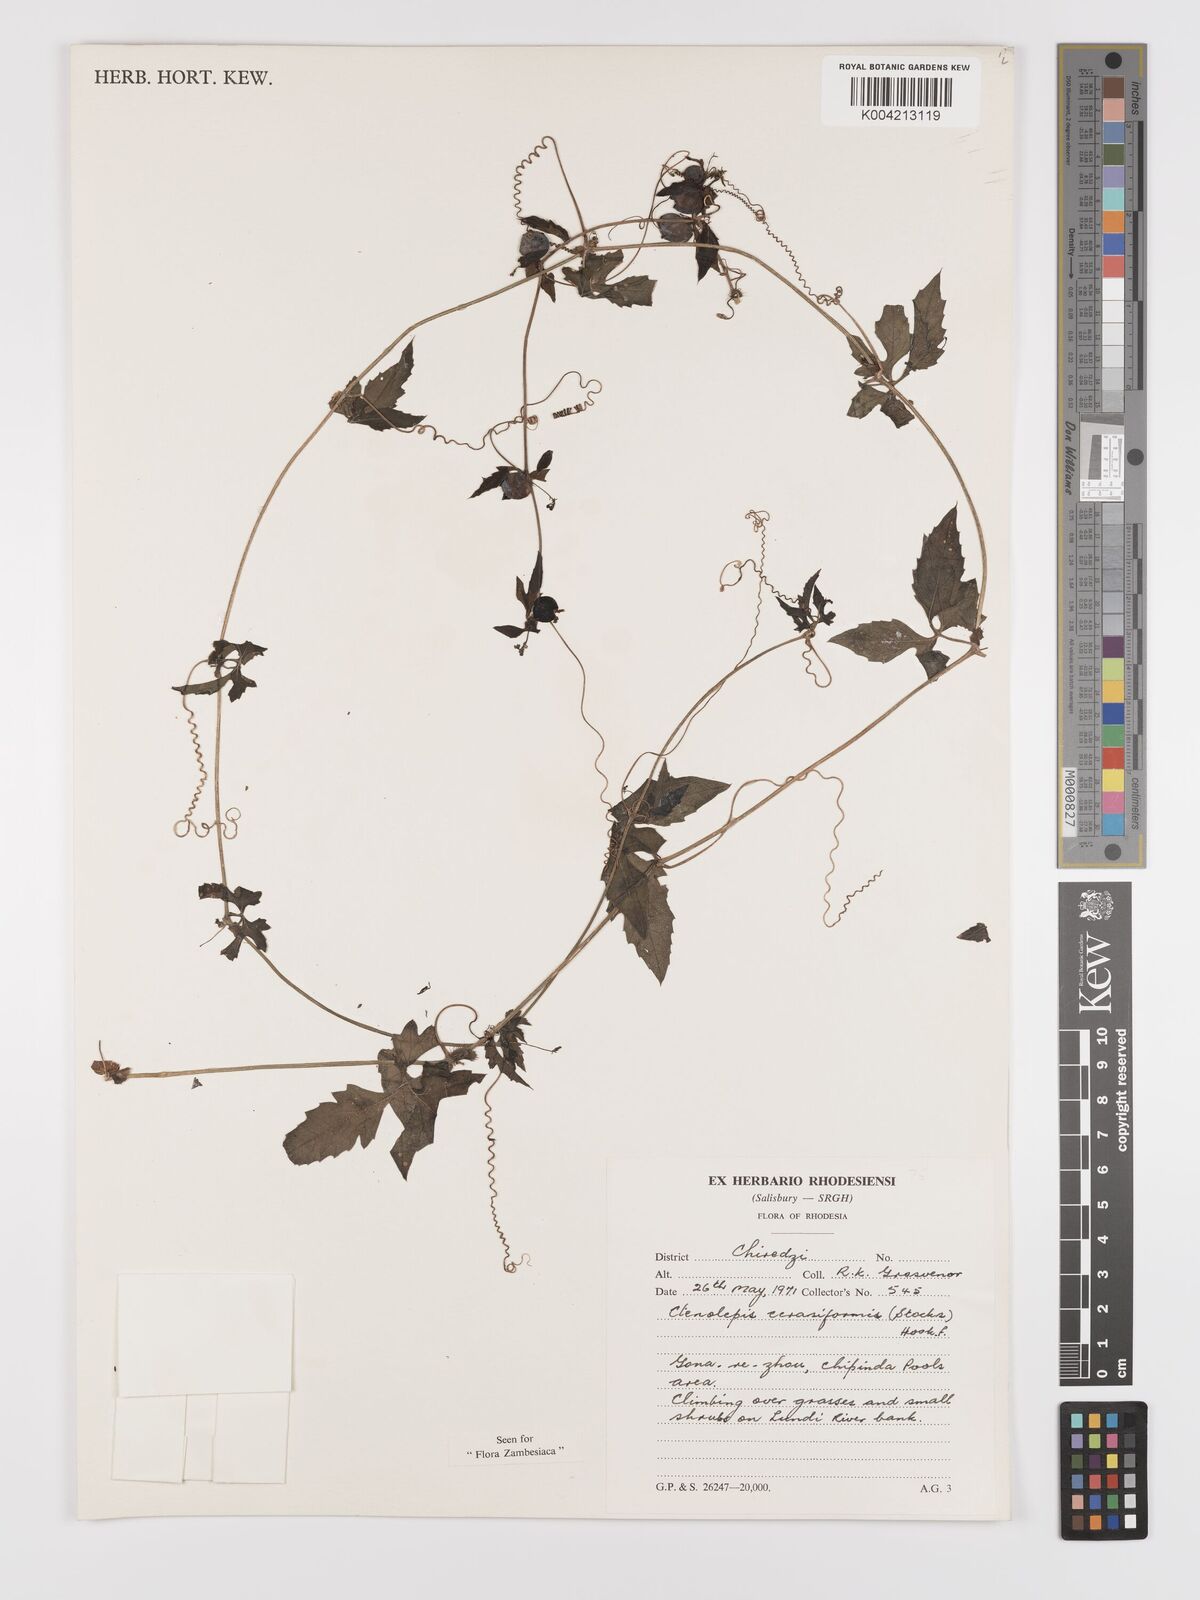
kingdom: Plantae
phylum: Tracheophyta
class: Magnoliopsida
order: Cucurbitales
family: Cucurbitaceae
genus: Blastania
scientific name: Blastania cerasiformis
